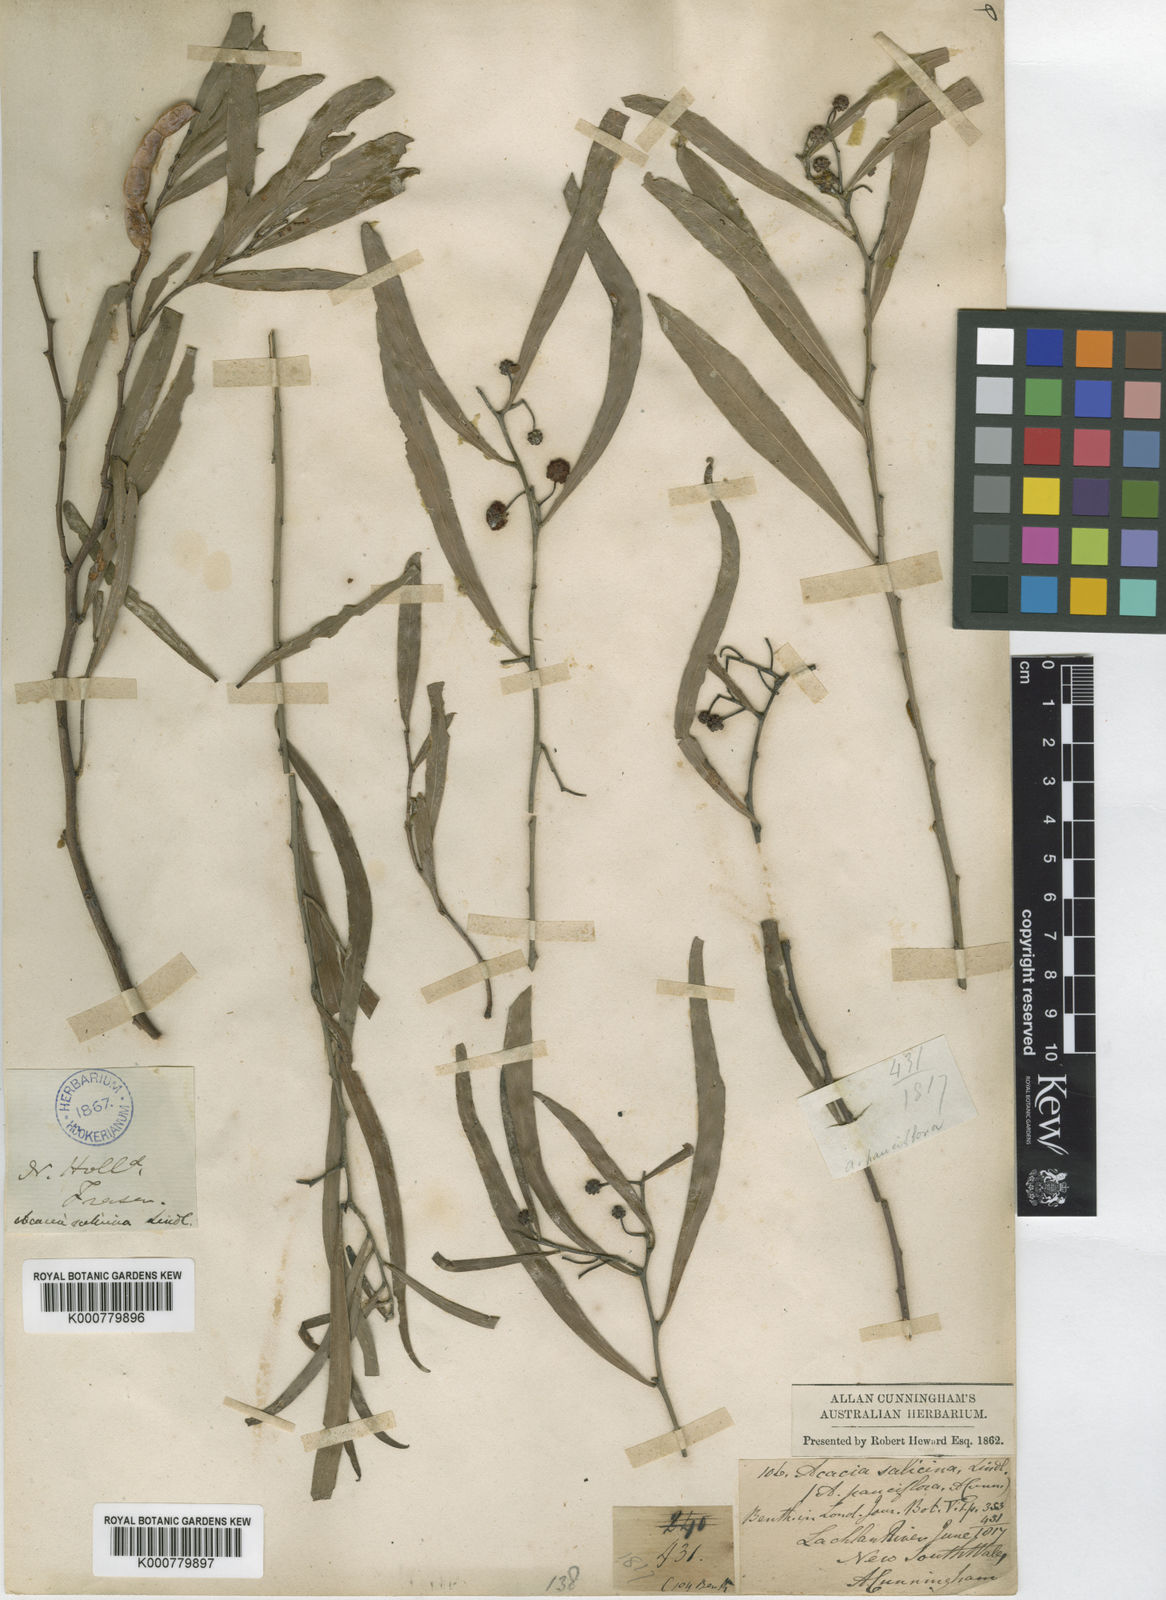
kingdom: Plantae
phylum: Tracheophyta
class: Magnoliopsida
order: Fabales
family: Fabaceae
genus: Acacia
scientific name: Acacia
